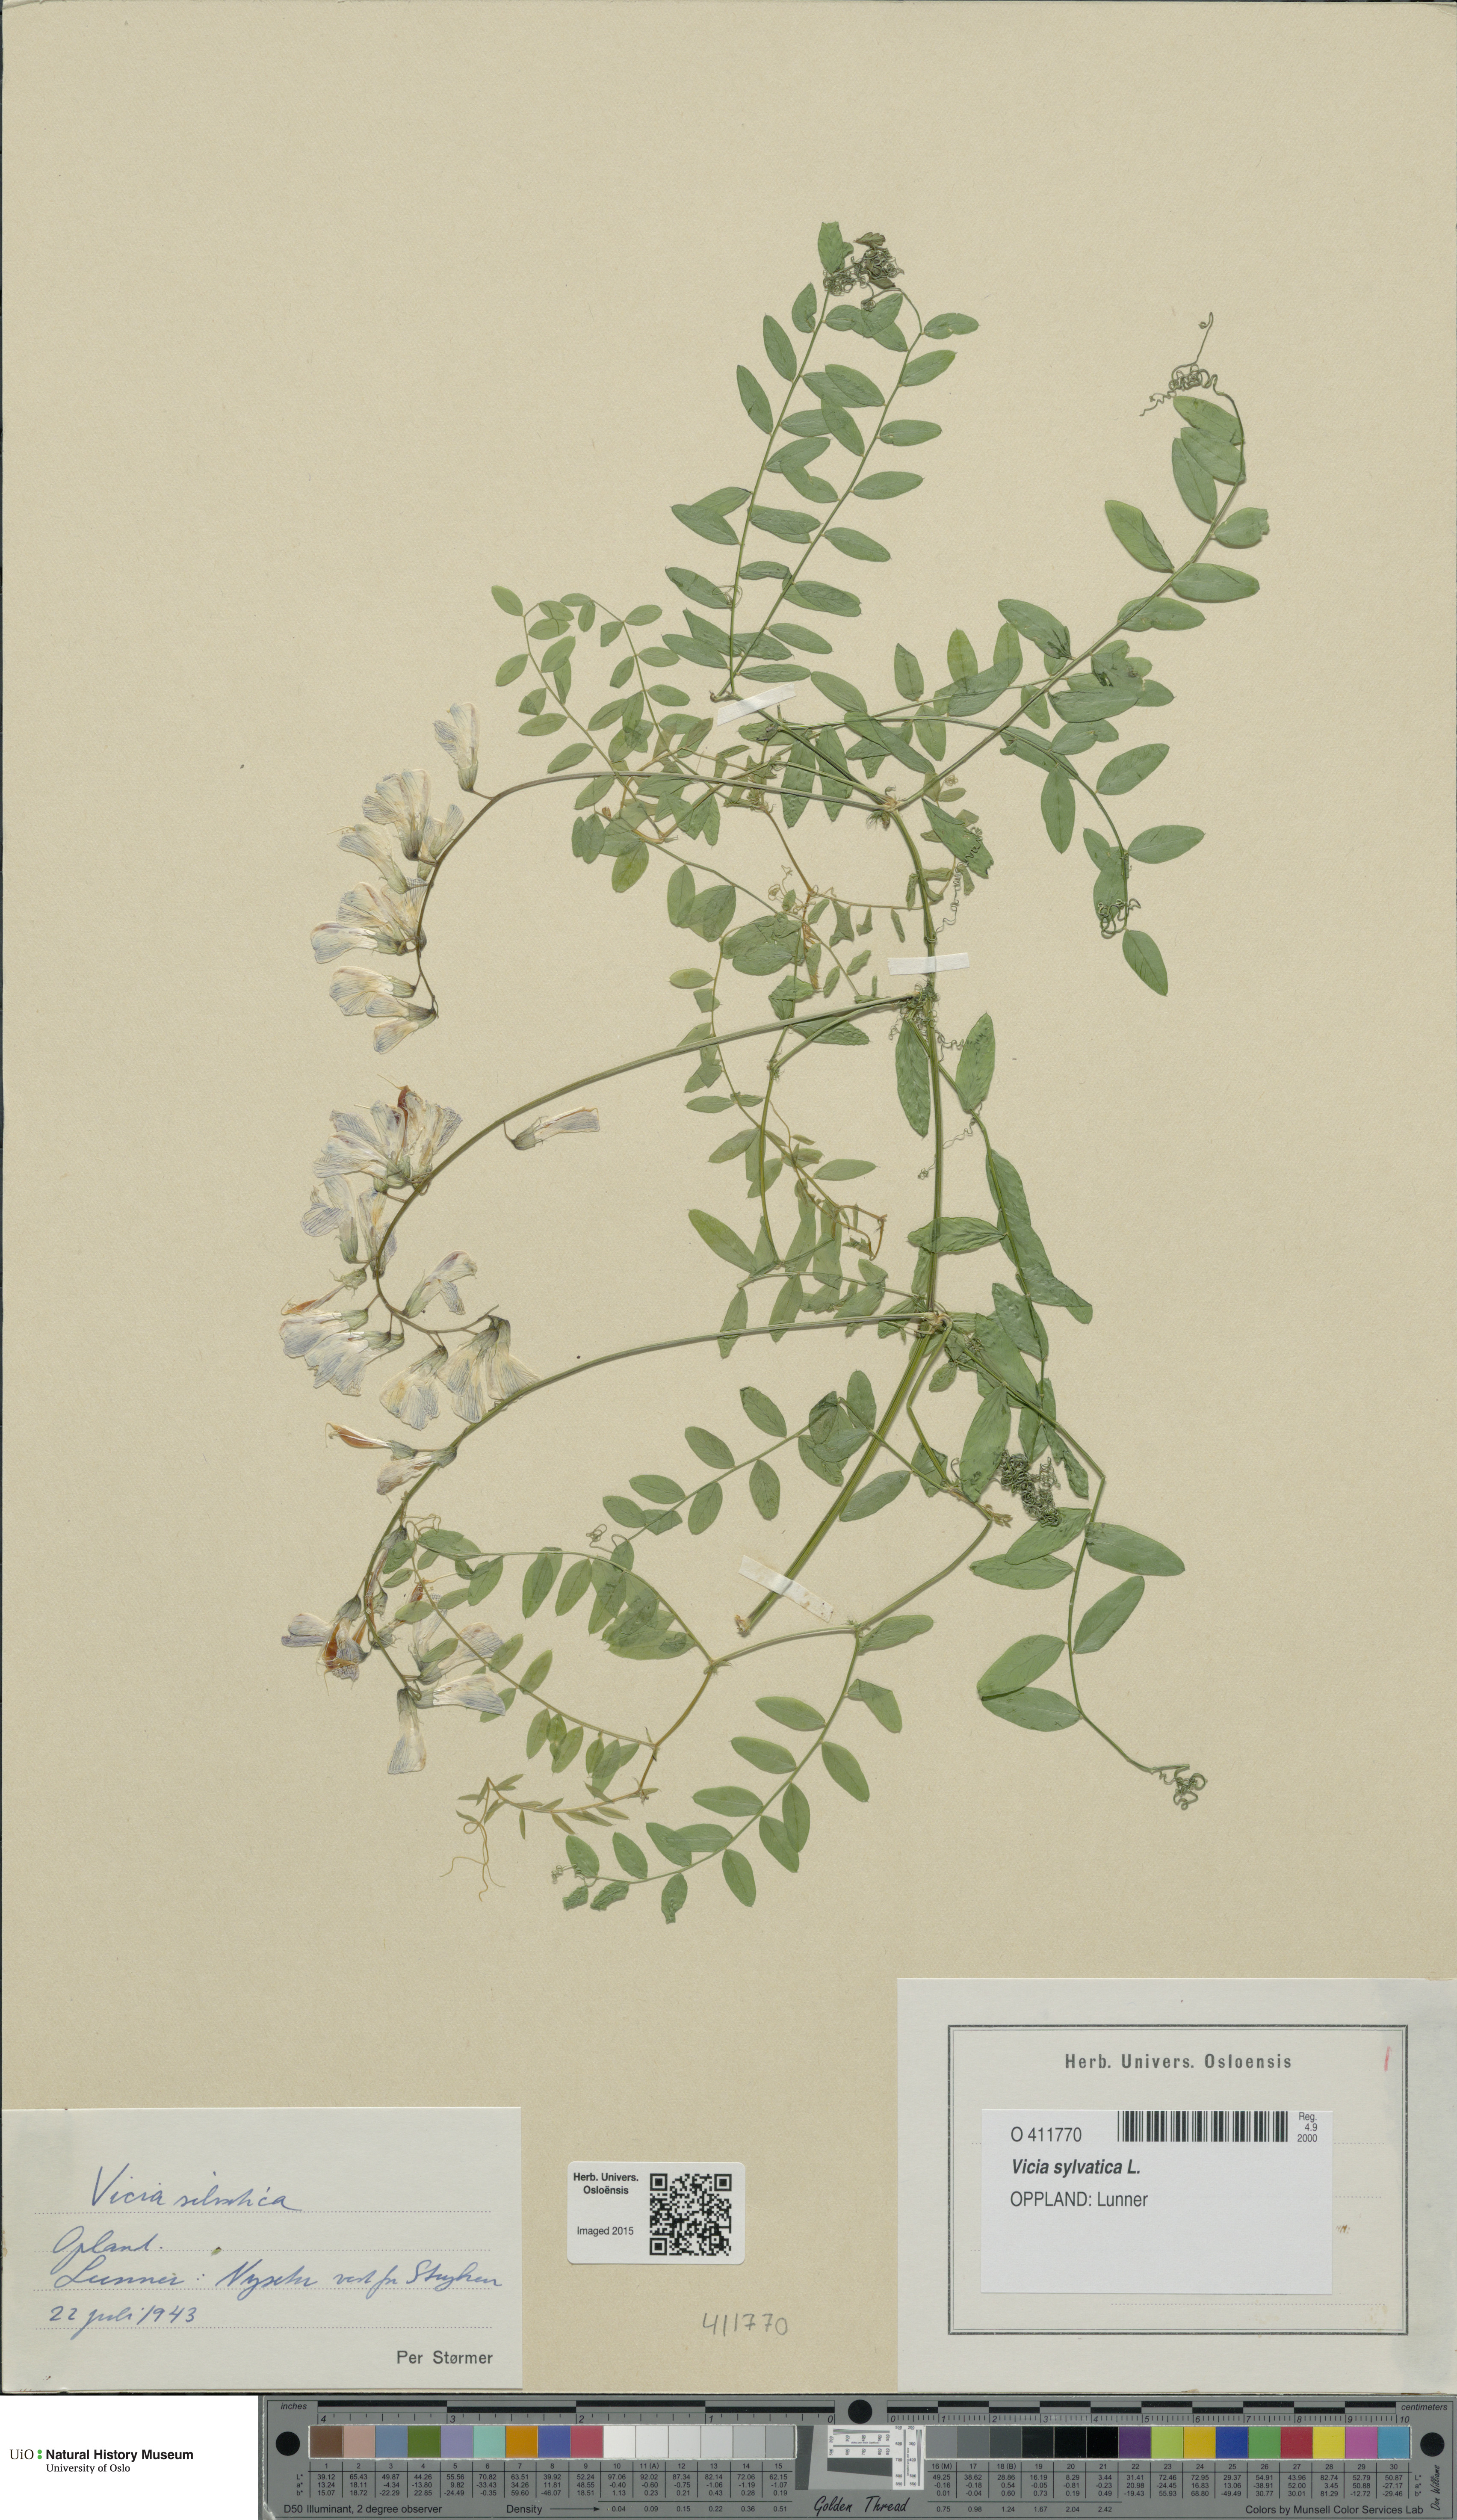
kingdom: Plantae
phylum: Tracheophyta
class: Magnoliopsida
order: Fabales
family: Fabaceae
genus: Vicia
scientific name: Vicia sylvatica
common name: Wood vetch
